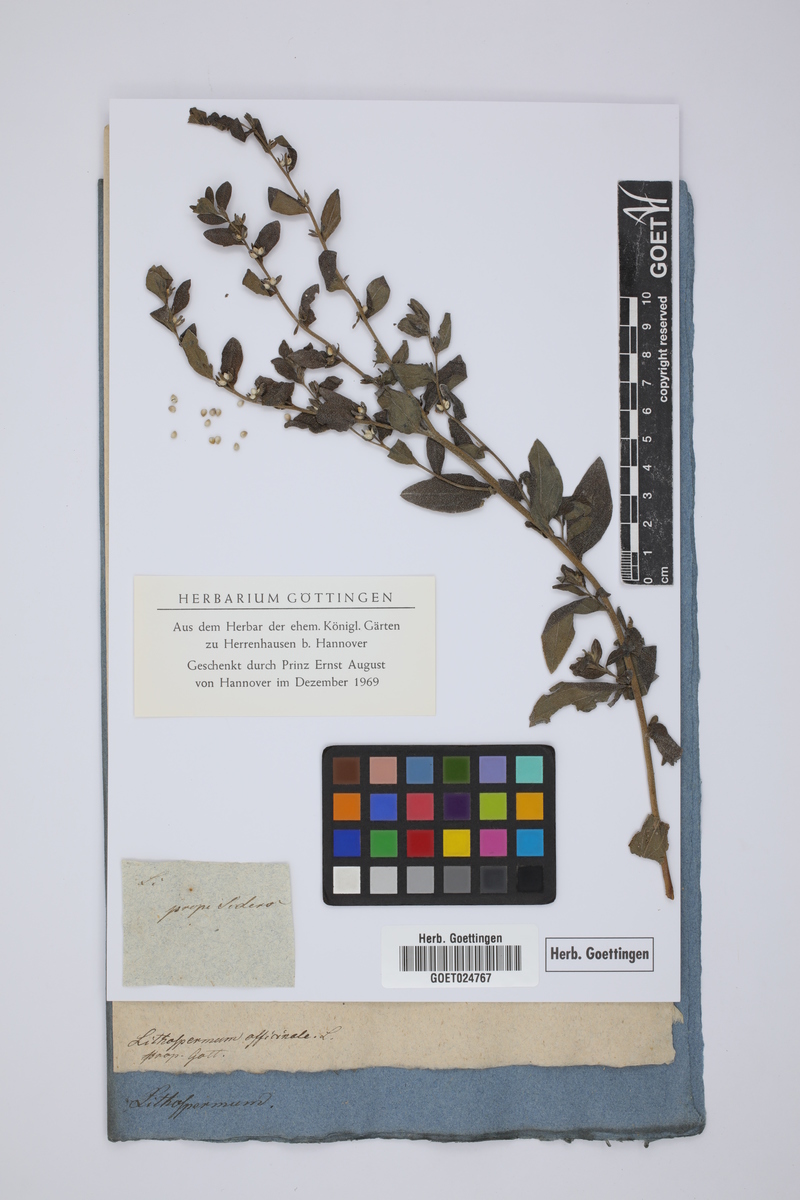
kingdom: Plantae
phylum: Tracheophyta
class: Magnoliopsida
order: Boraginales
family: Boraginaceae
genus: Lithospermum
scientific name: Lithospermum officinale
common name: Common gromwell
